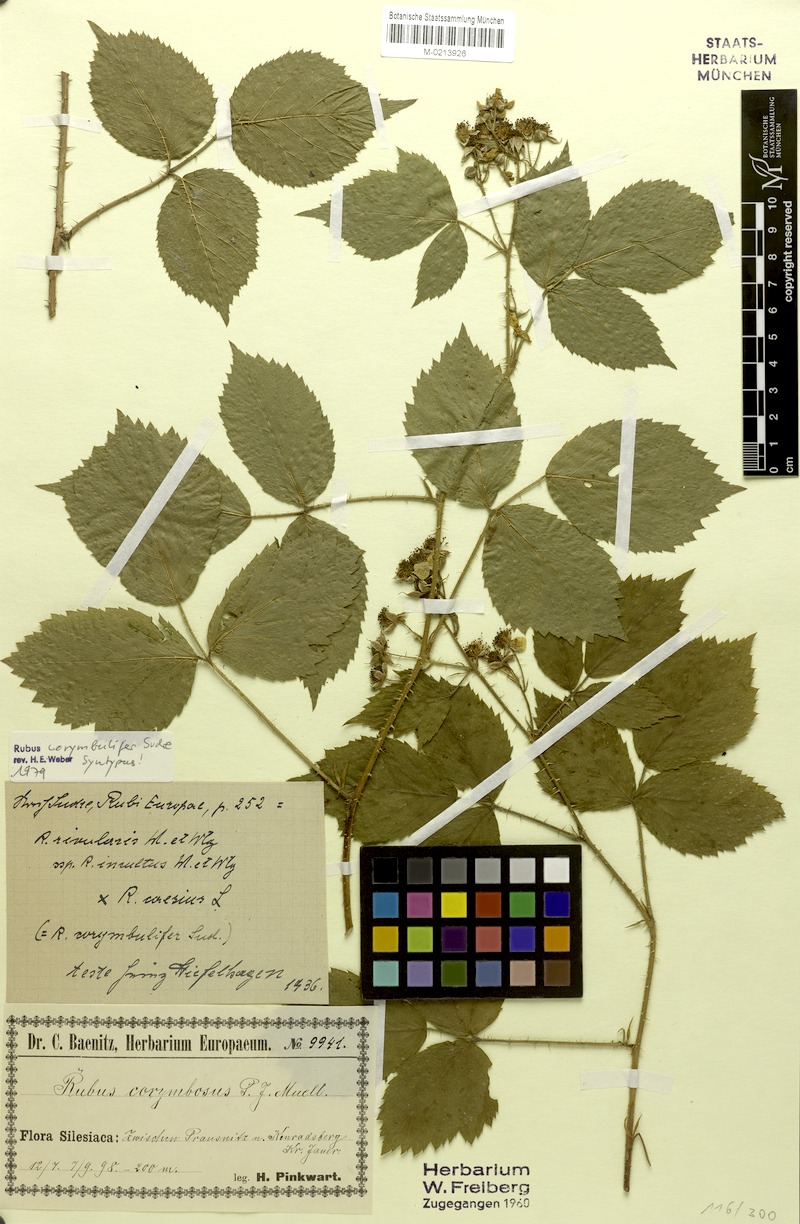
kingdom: Plantae
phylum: Tracheophyta
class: Magnoliopsida
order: Rosales
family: Rosaceae
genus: Rubus
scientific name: Rubus corymbulifer
